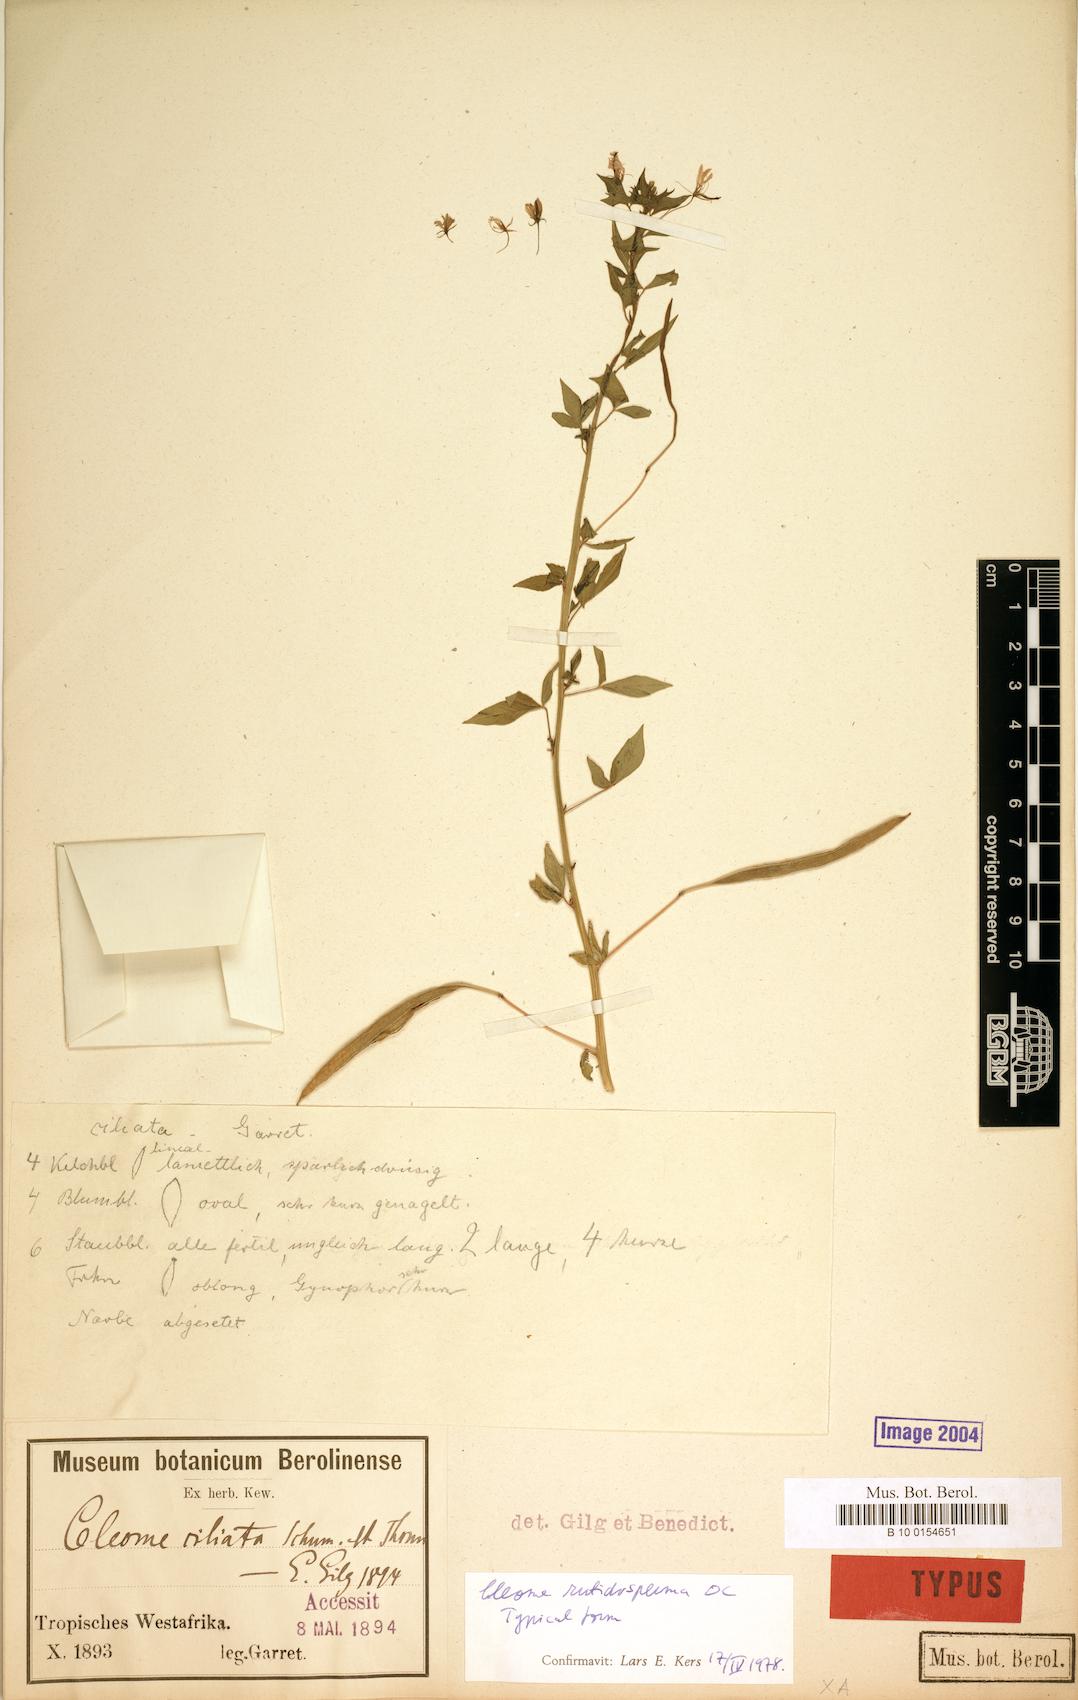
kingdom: Plantae
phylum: Tracheophyta
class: Magnoliopsida
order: Brassicales
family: Cleomaceae
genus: Sieruela
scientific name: Sieruela rutidosperma
